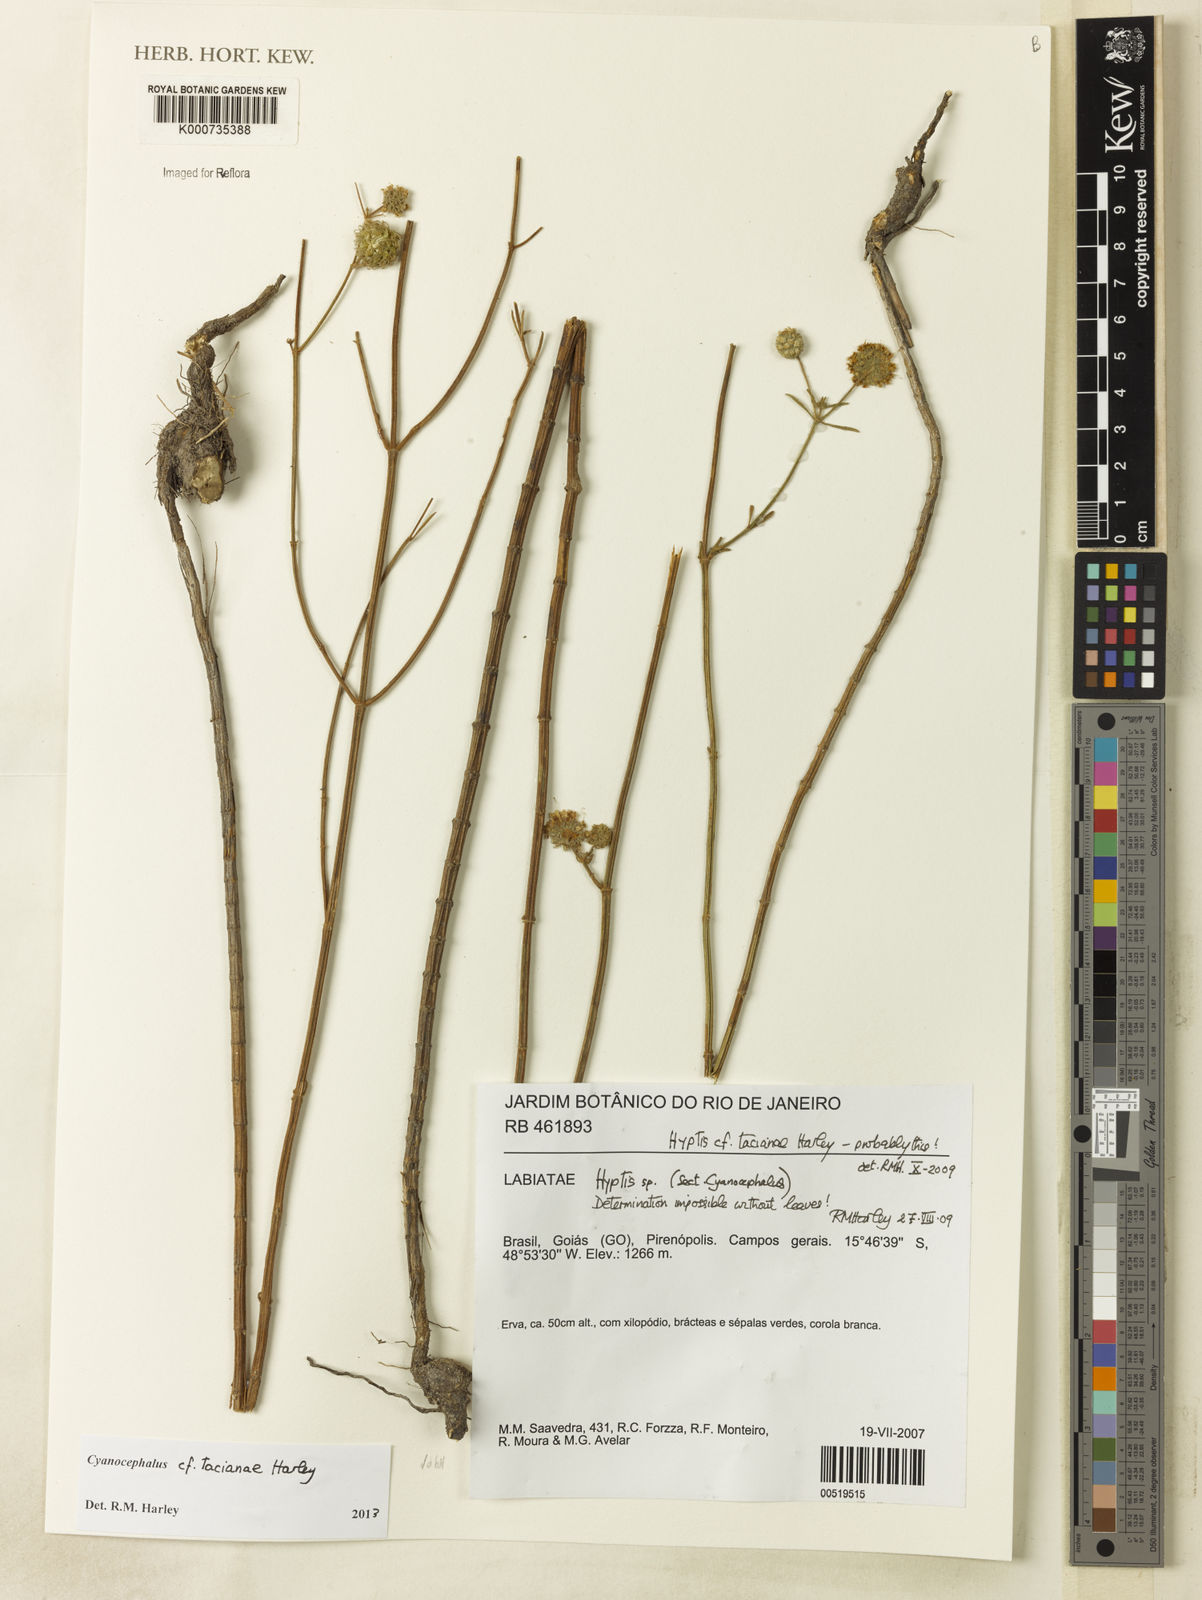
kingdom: Plantae
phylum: Tracheophyta
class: Magnoliopsida
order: Lamiales
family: Lamiaceae
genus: Cyanocephalus
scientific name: Cyanocephalus tacianae
